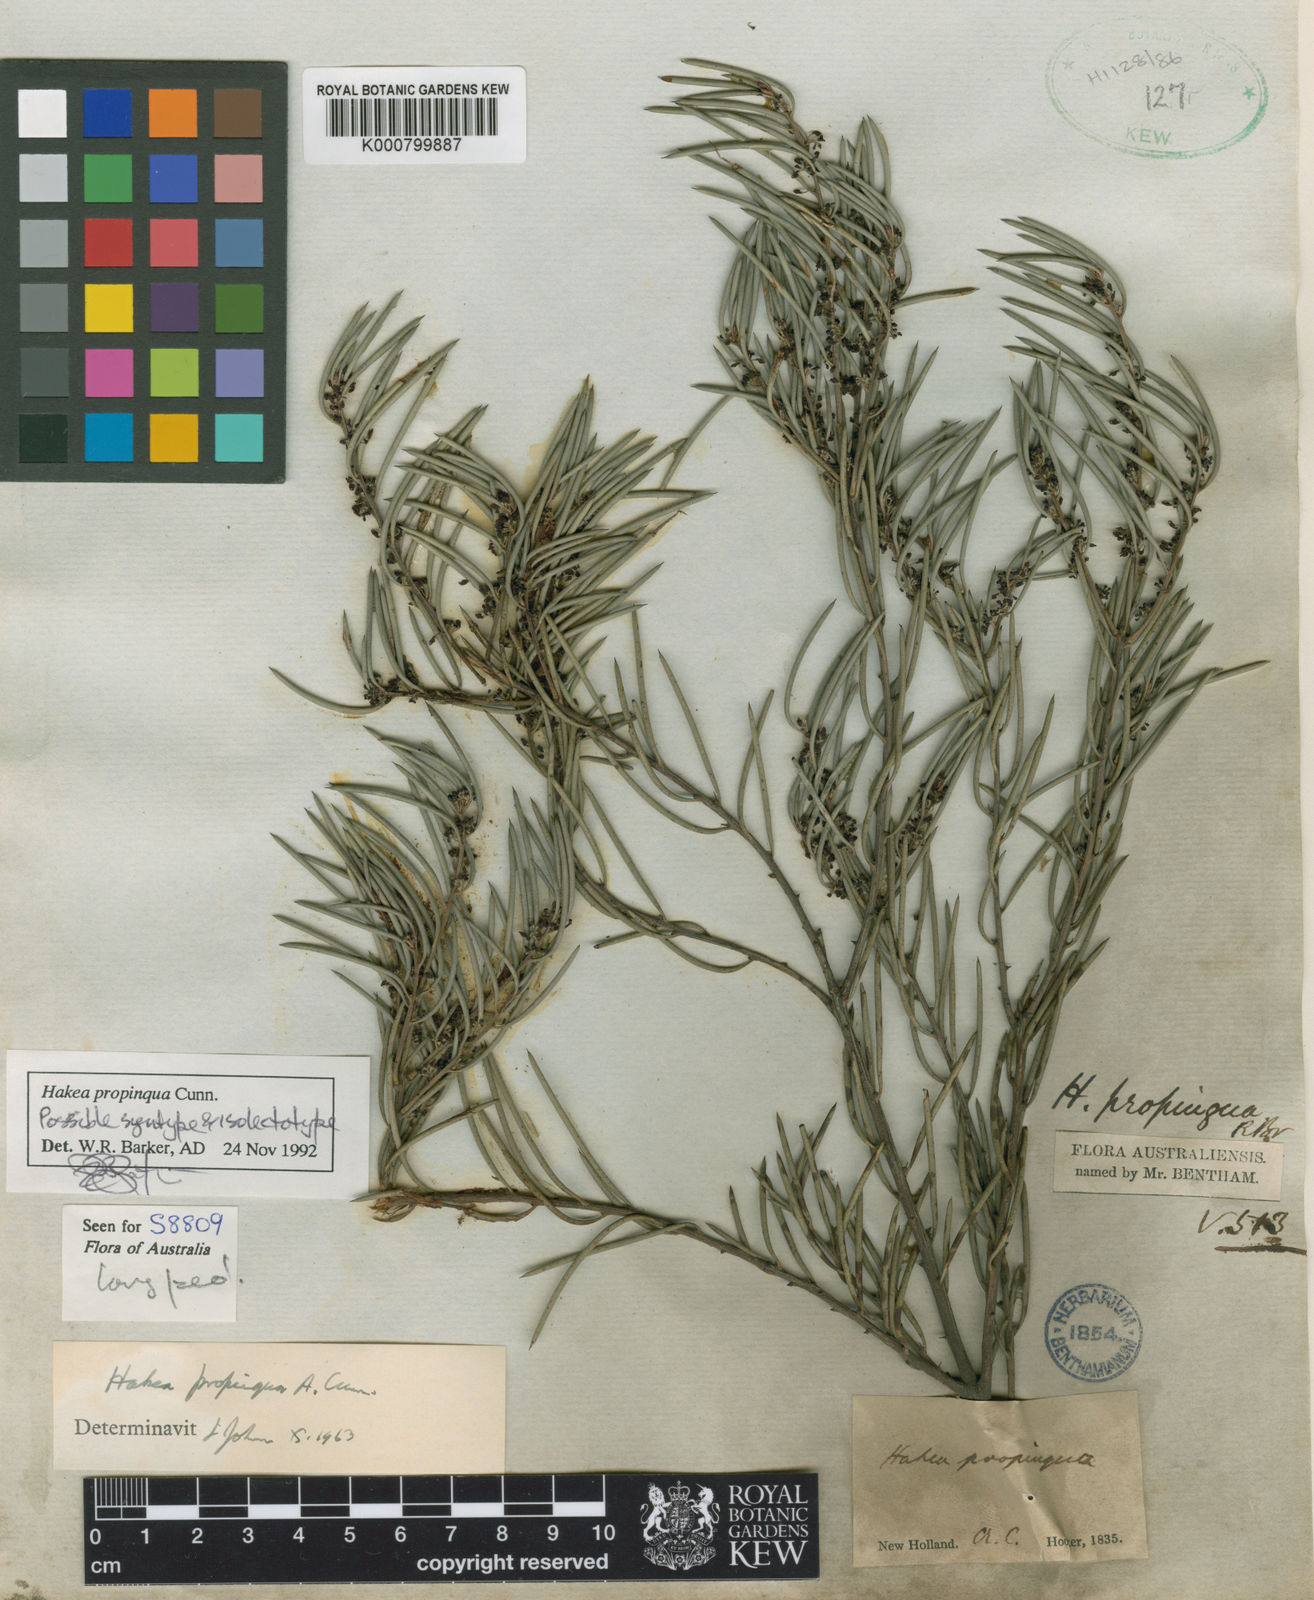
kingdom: Plantae
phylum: Tracheophyta
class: Magnoliopsida
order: Proteales
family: Proteaceae
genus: Hakea
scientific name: Hakea propinqua
